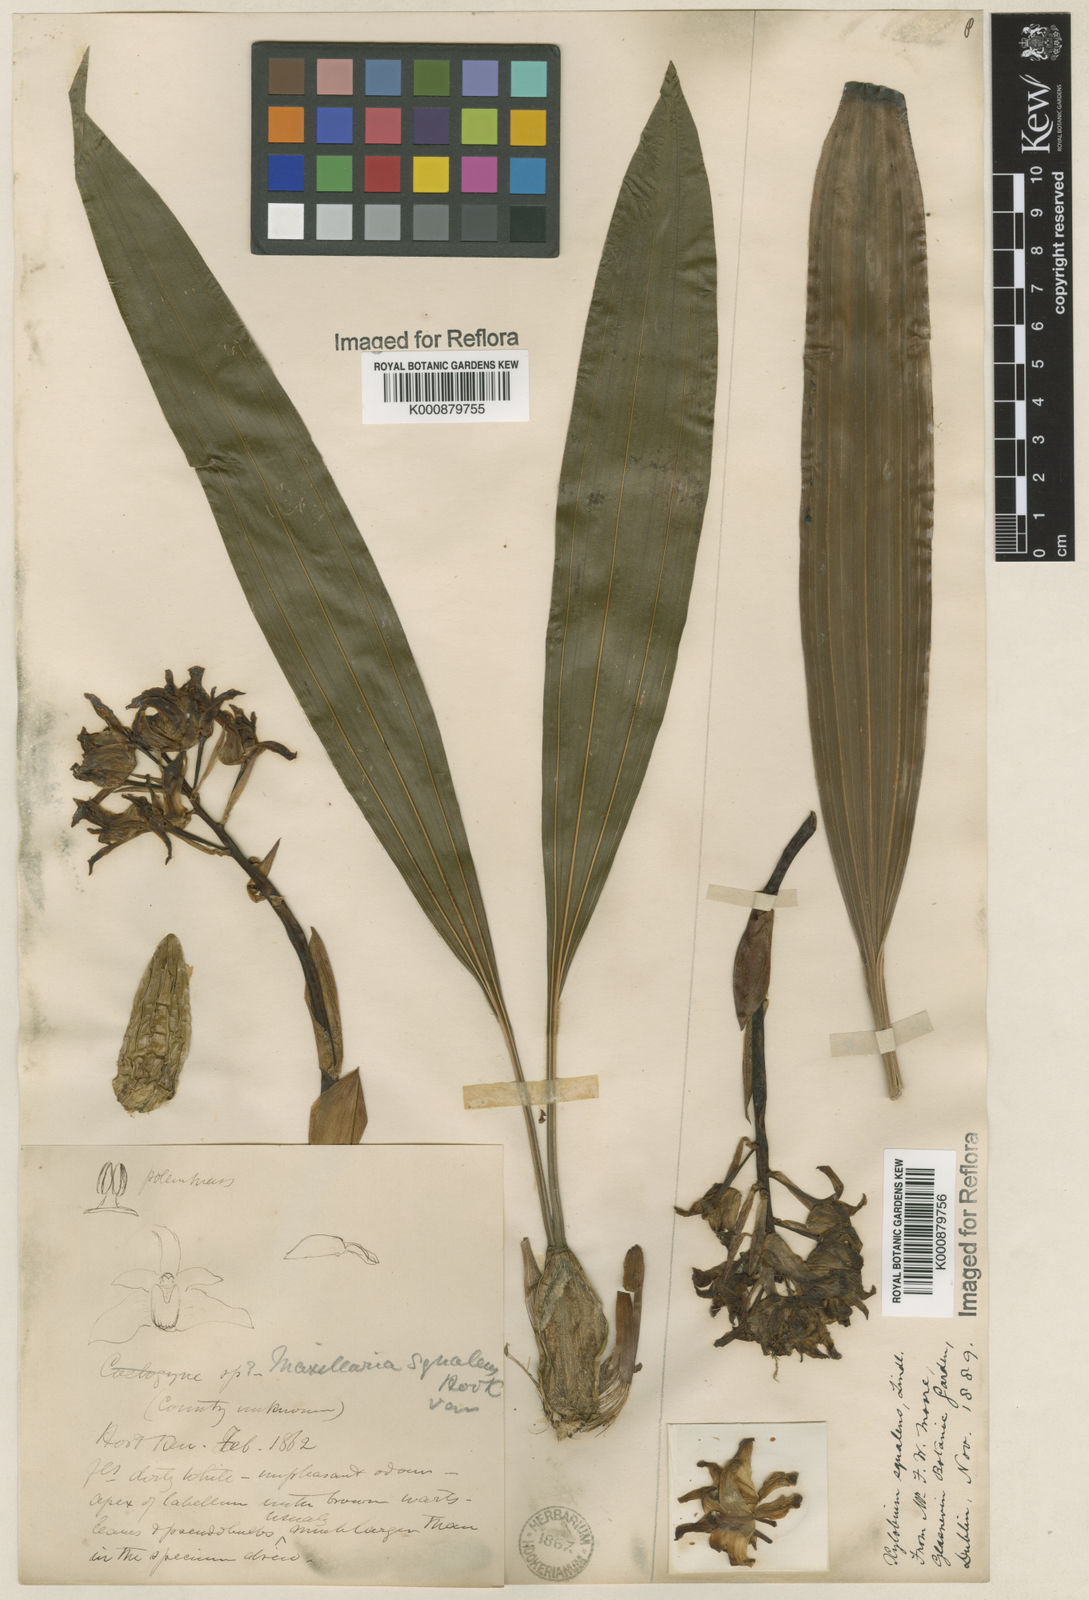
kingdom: Plantae
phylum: Tracheophyta
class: Liliopsida
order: Asparagales
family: Orchidaceae
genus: Xylobium
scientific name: Xylobium
